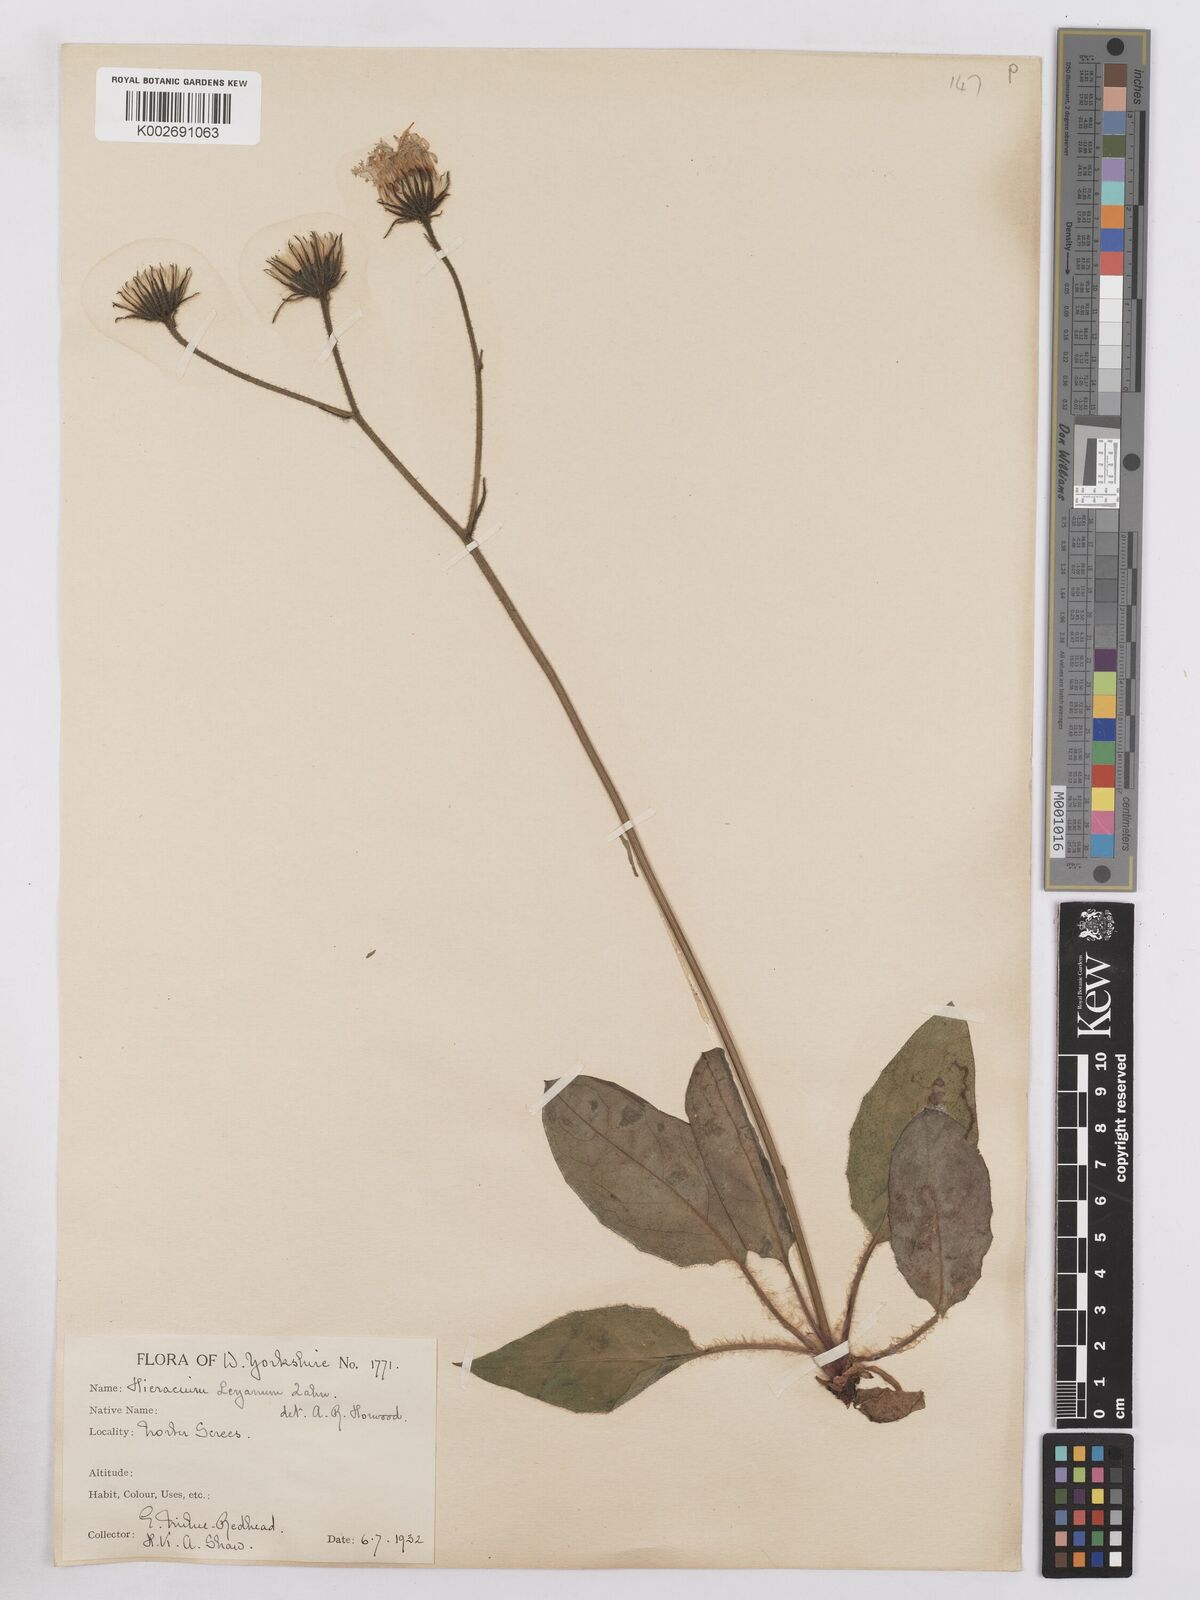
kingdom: Plantae
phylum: Tracheophyta
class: Magnoliopsida
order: Asterales
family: Asteraceae
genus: Hieracium
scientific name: Hieracium leyanum
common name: Fat-leaved hawkweed
